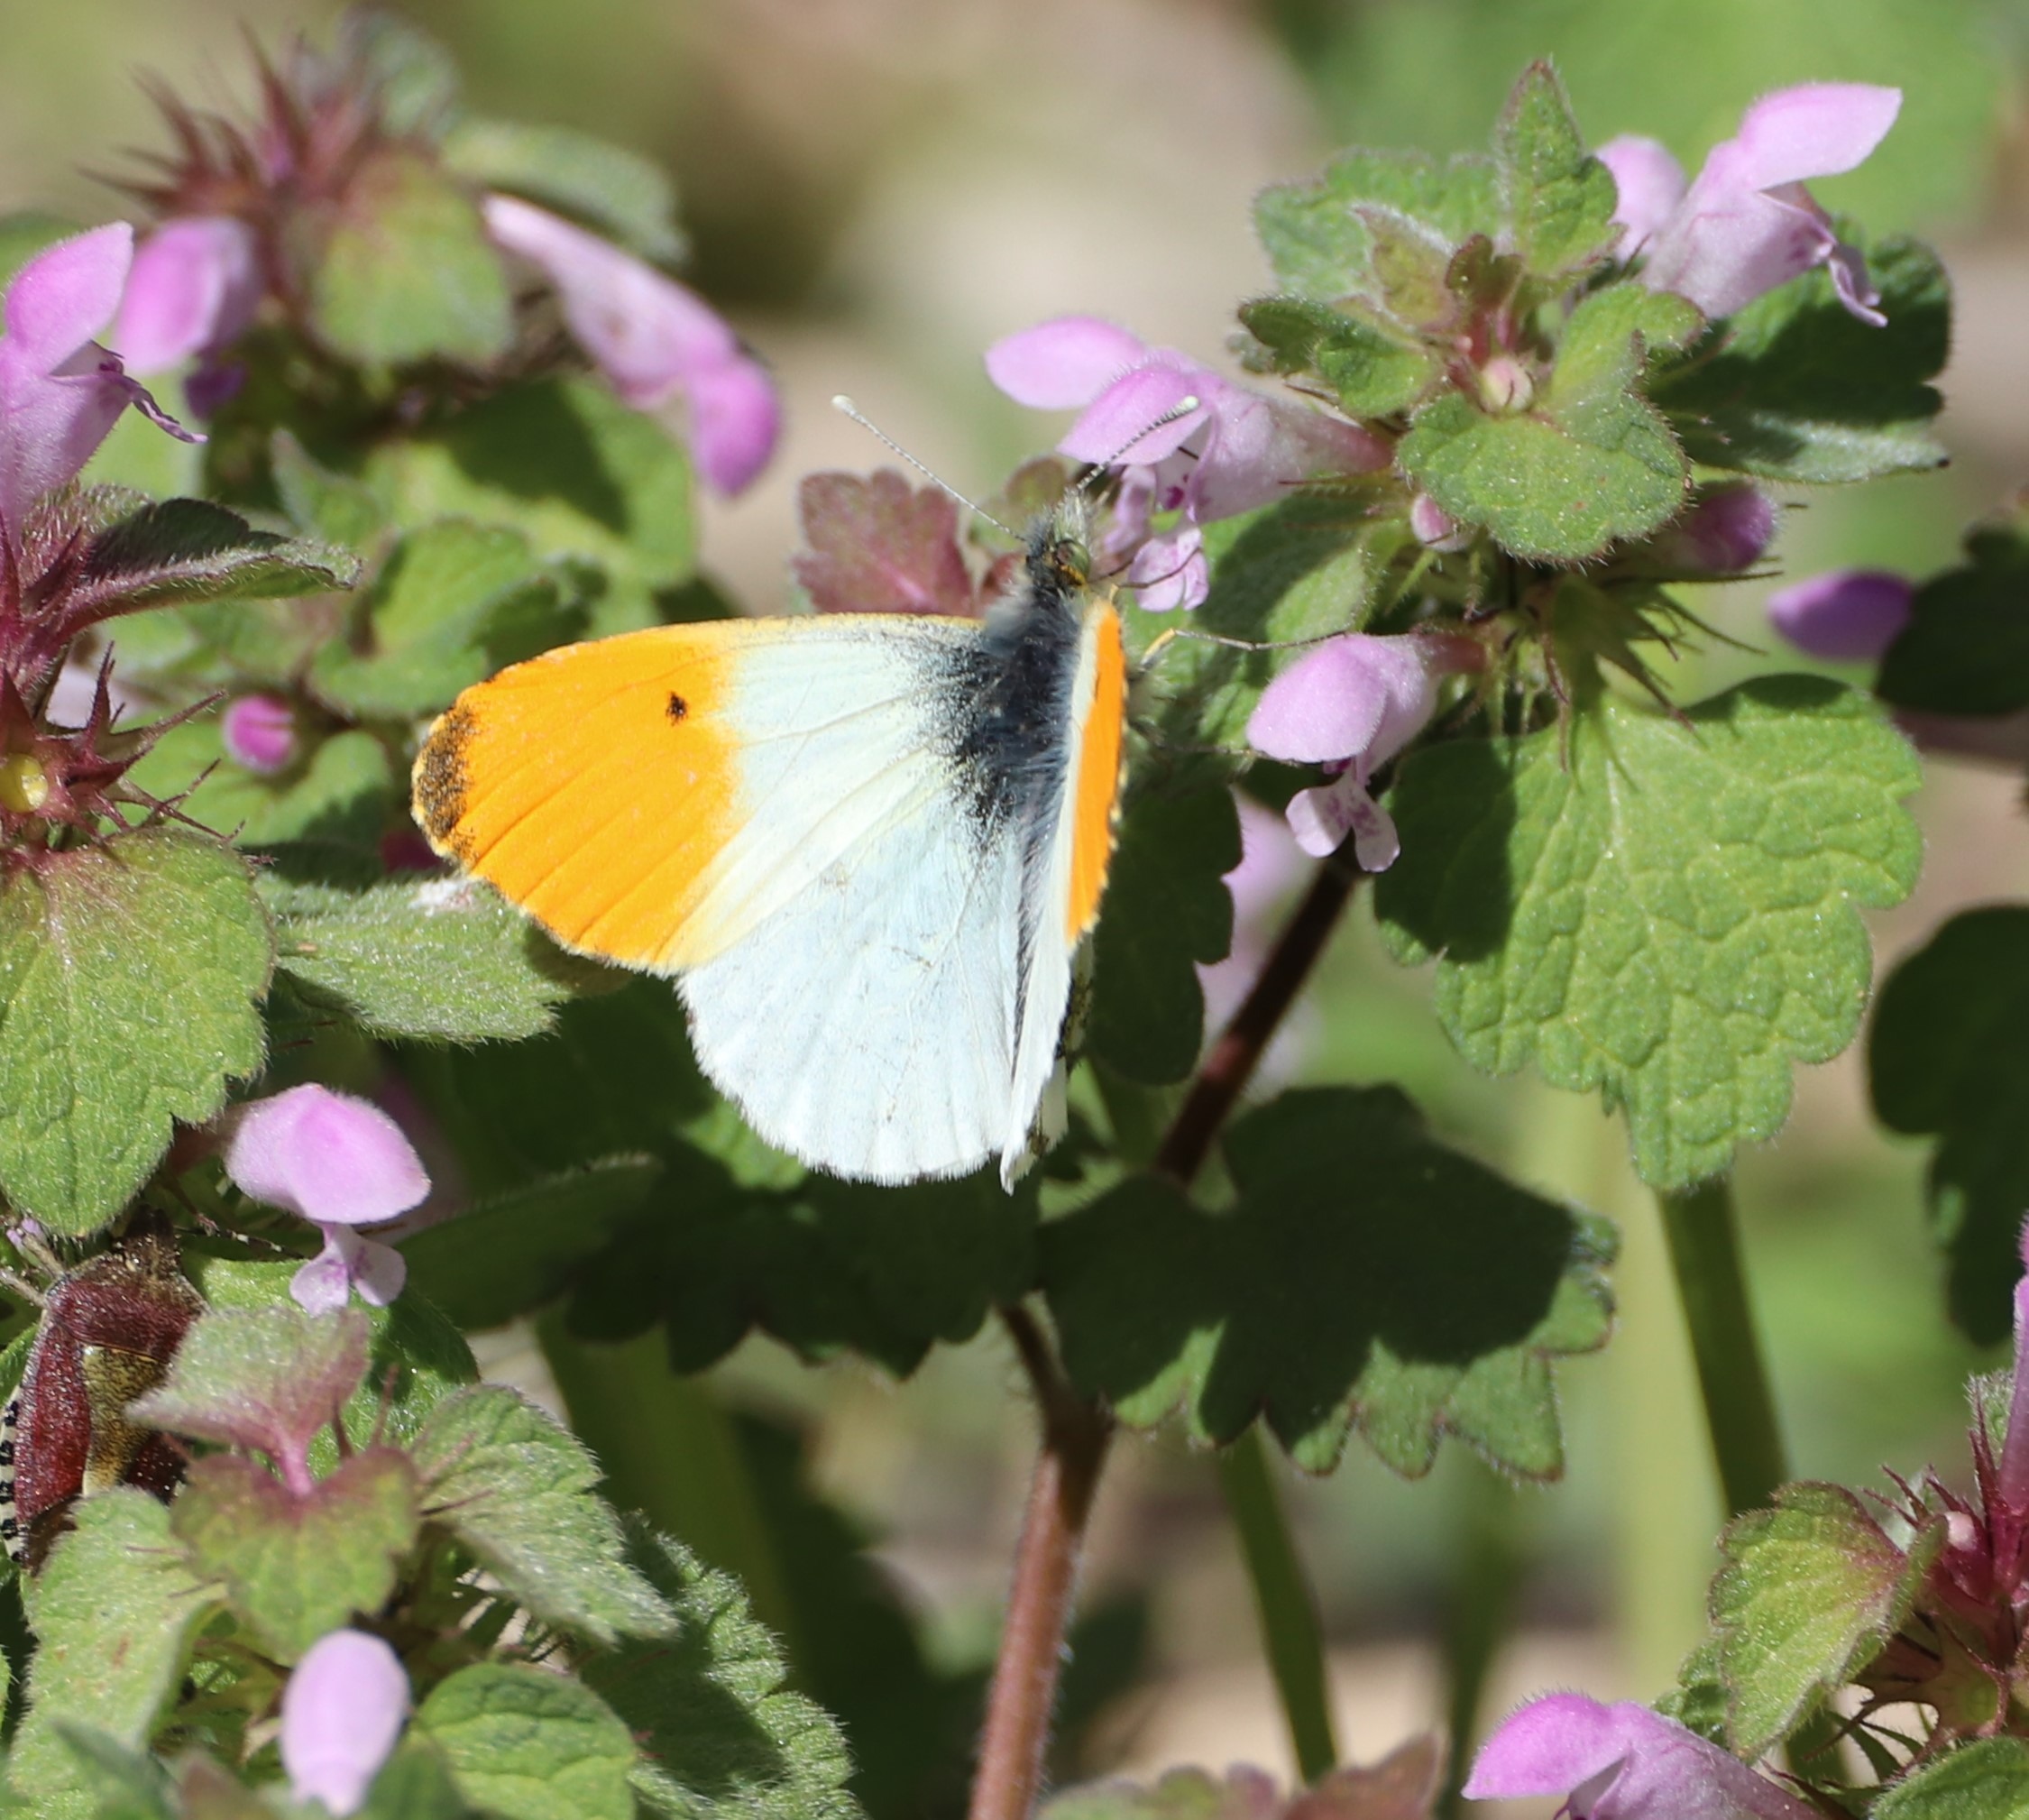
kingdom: Animalia
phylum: Arthropoda
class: Insecta
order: Lepidoptera
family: Pieridae
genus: Anthocharis
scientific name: Anthocharis cardamines
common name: Aurora
